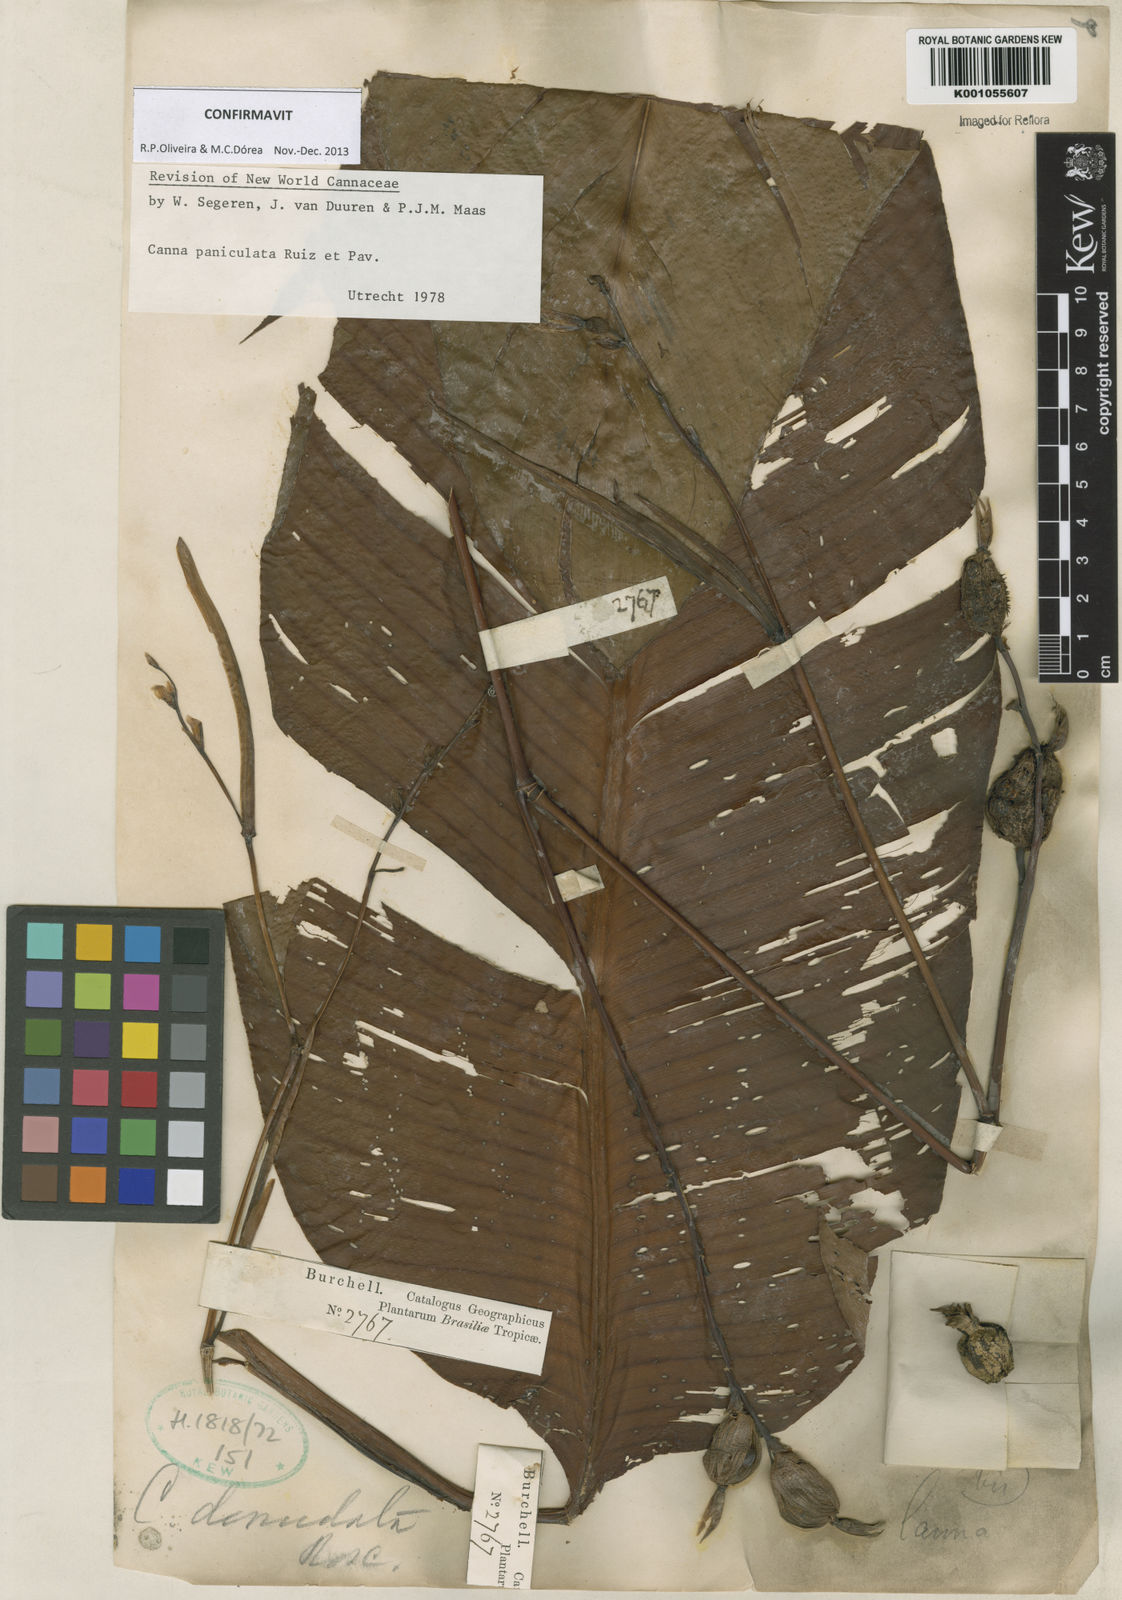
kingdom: Plantae
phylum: Tracheophyta
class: Liliopsida
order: Zingiberales
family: Cannaceae
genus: Canna
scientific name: Canna paniculata
